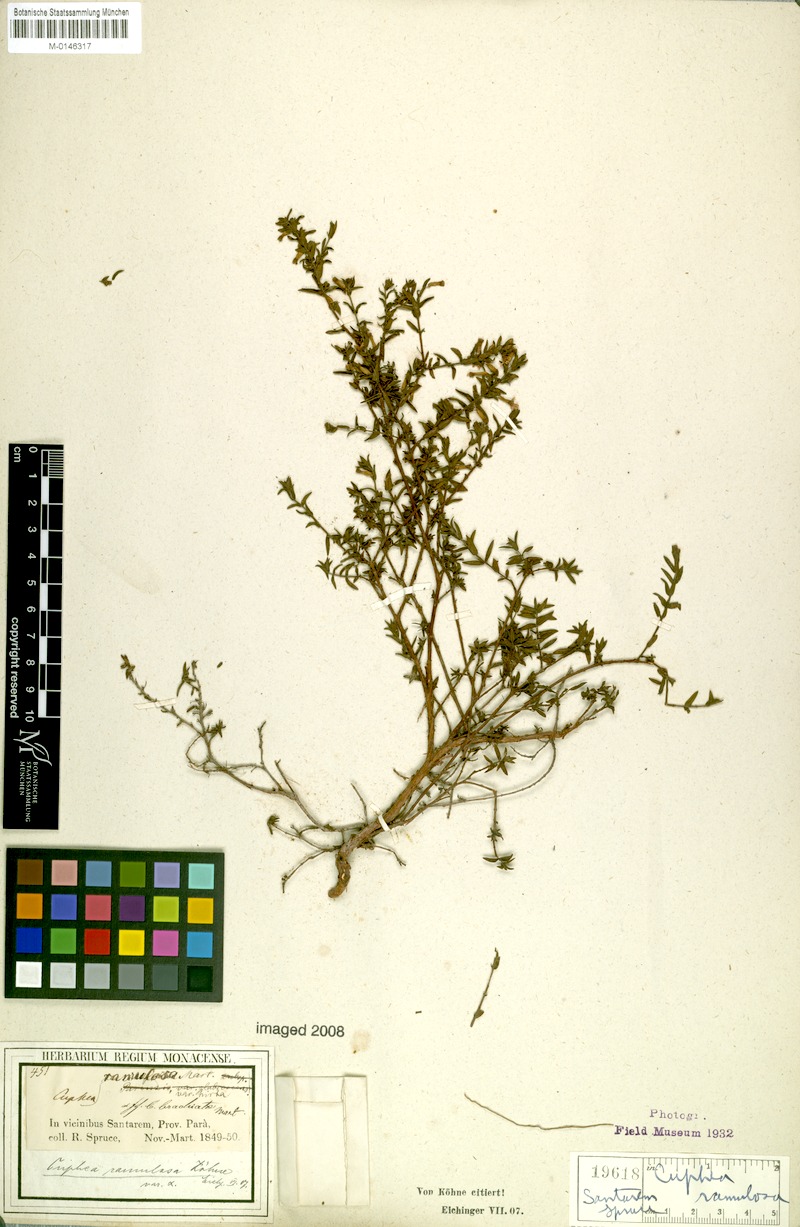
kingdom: Plantae
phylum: Tracheophyta
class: Magnoliopsida
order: Myrtales
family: Lythraceae
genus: Cuphea
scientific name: Cuphea antisyphilitica
